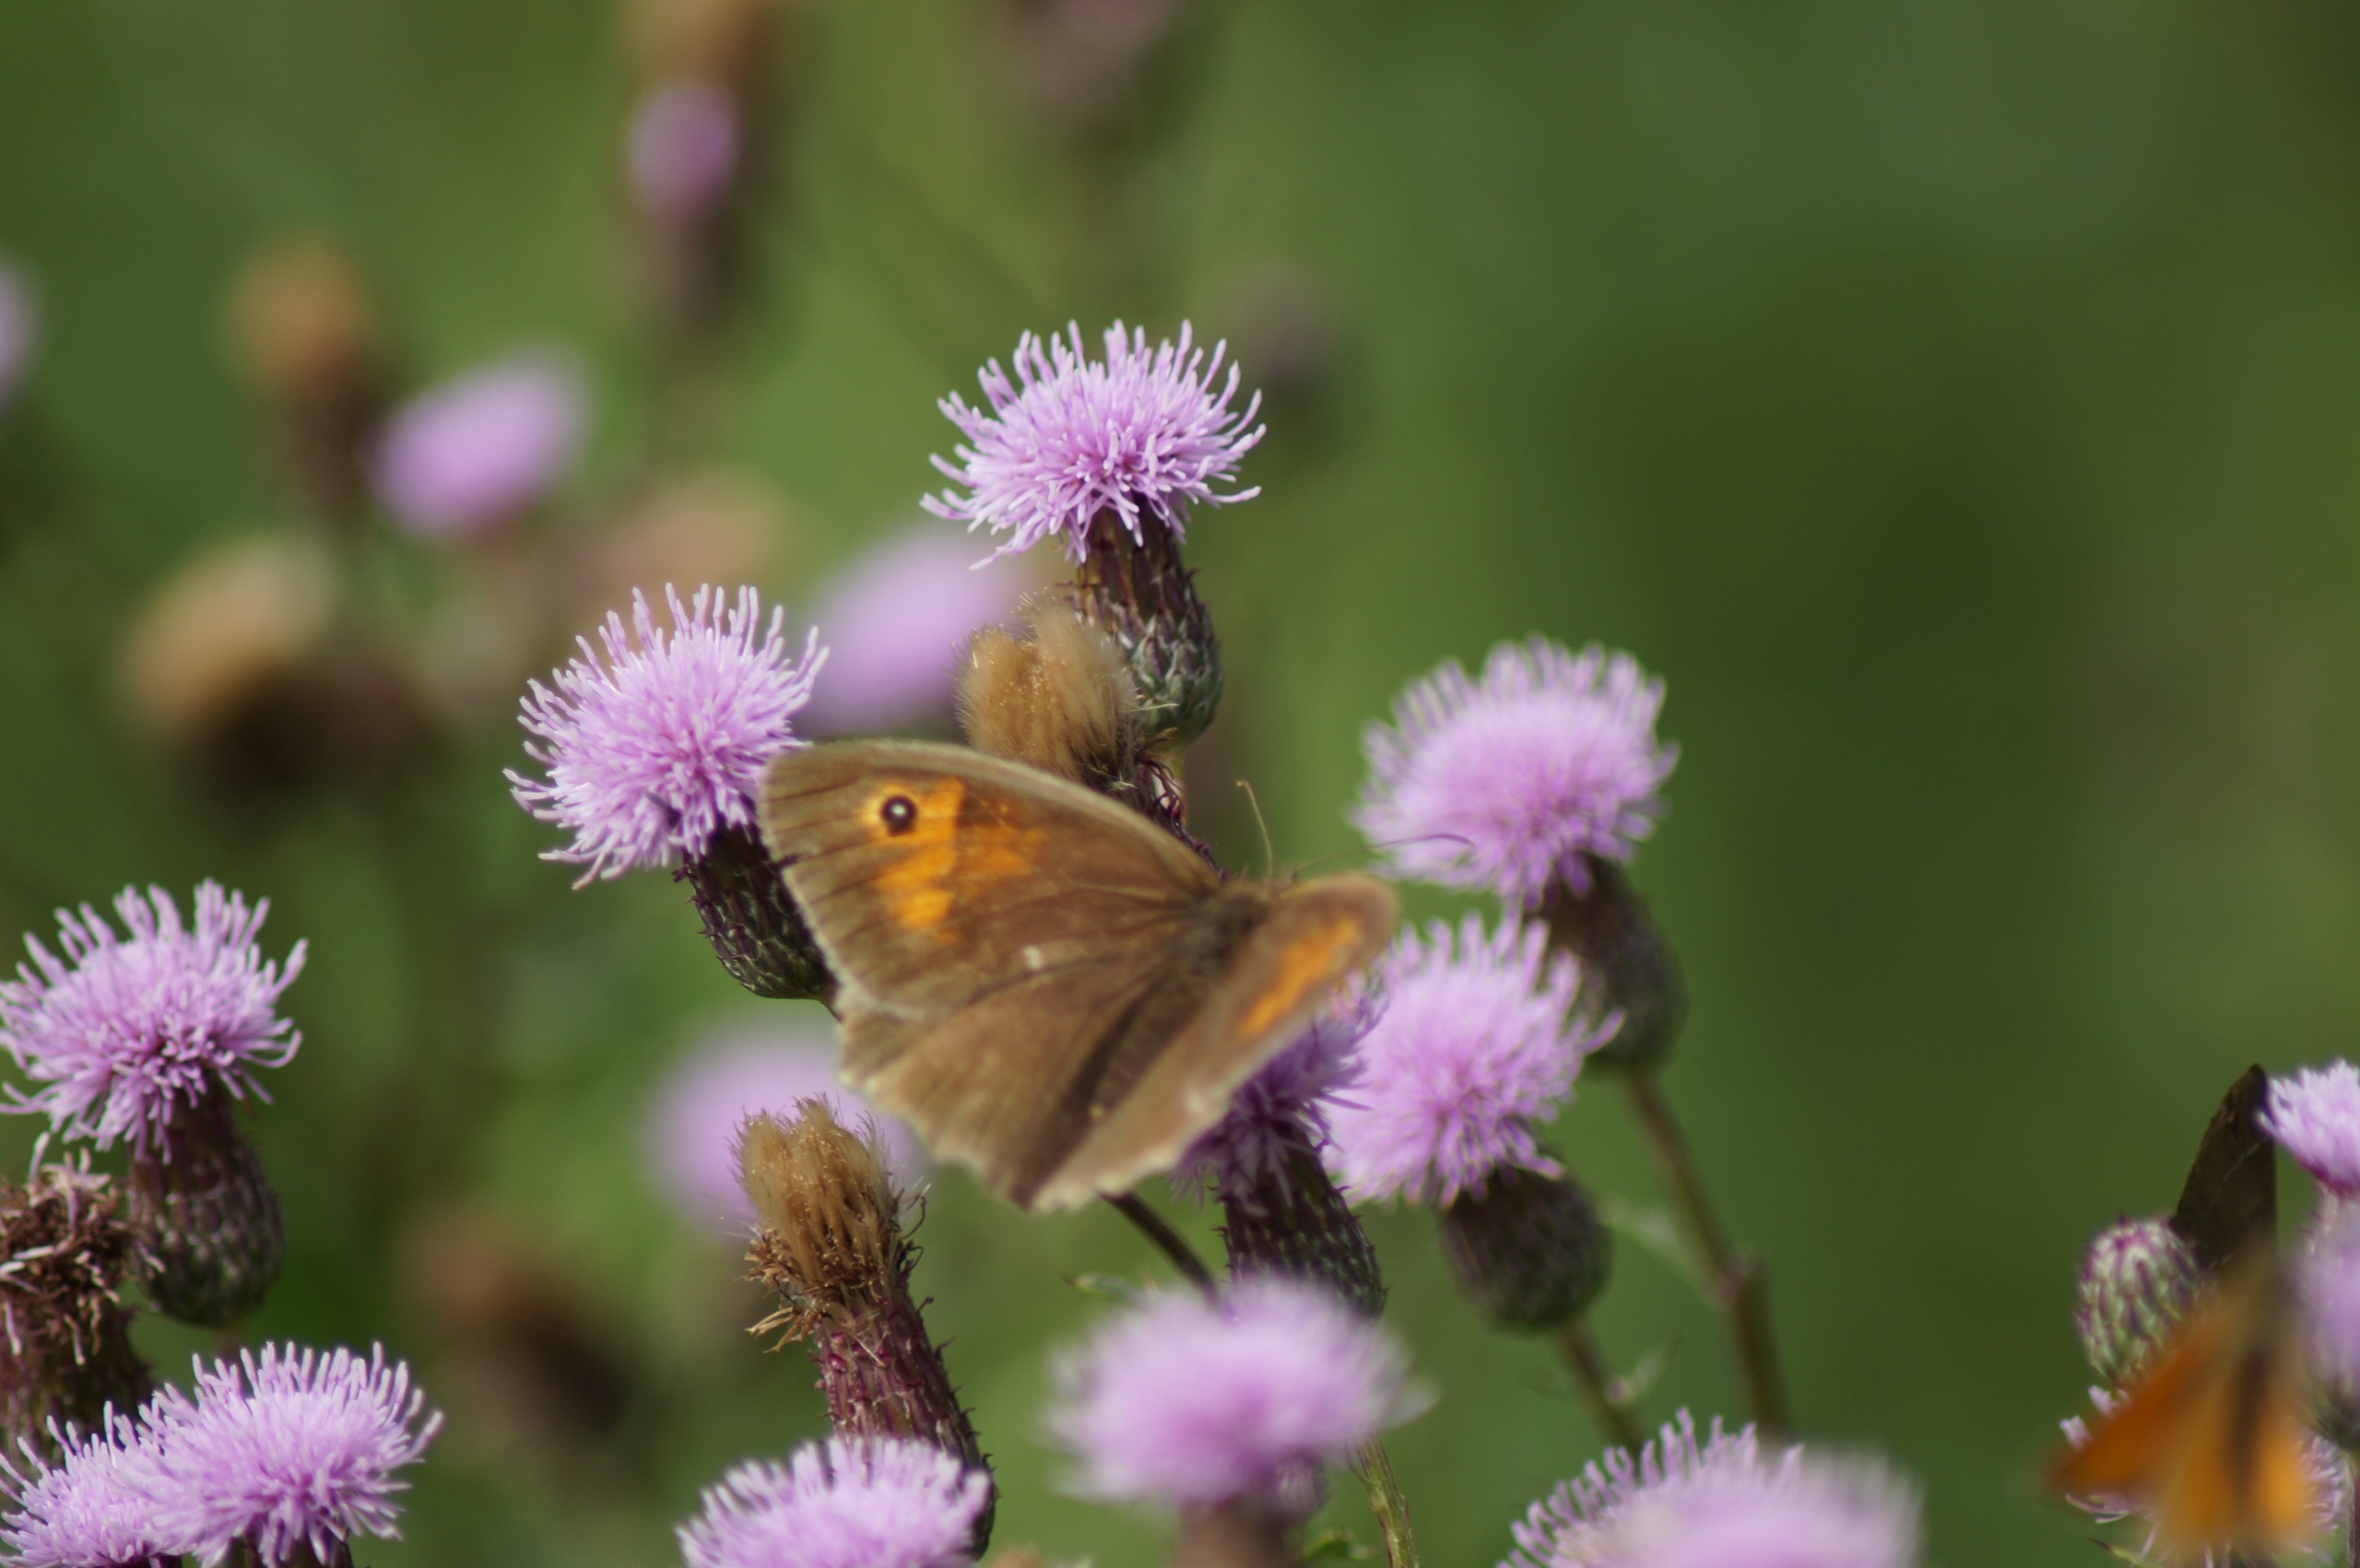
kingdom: Animalia
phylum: Arthropoda
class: Insecta
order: Lepidoptera
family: Nymphalidae
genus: Maniola
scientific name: Maniola jurtina
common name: Græsrandøje
